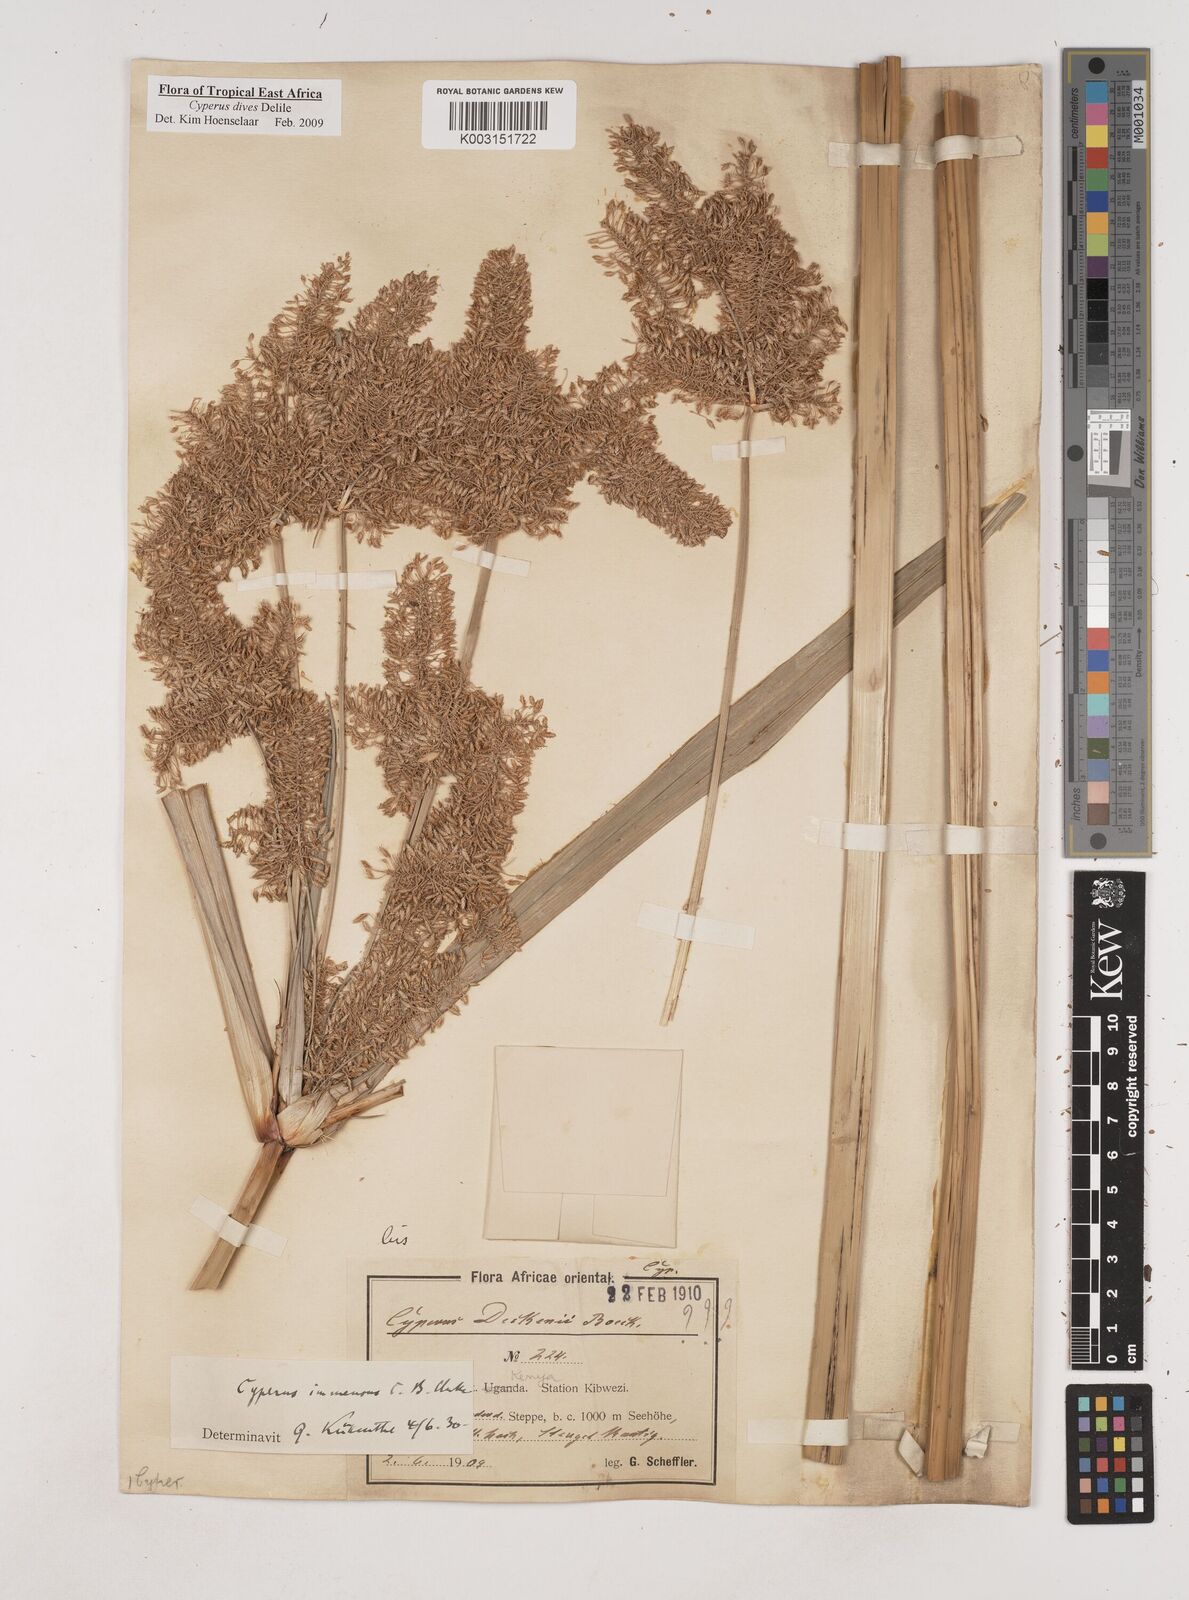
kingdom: Plantae
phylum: Tracheophyta
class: Liliopsida
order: Poales
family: Cyperaceae
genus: Cyperus
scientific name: Cyperus dives
